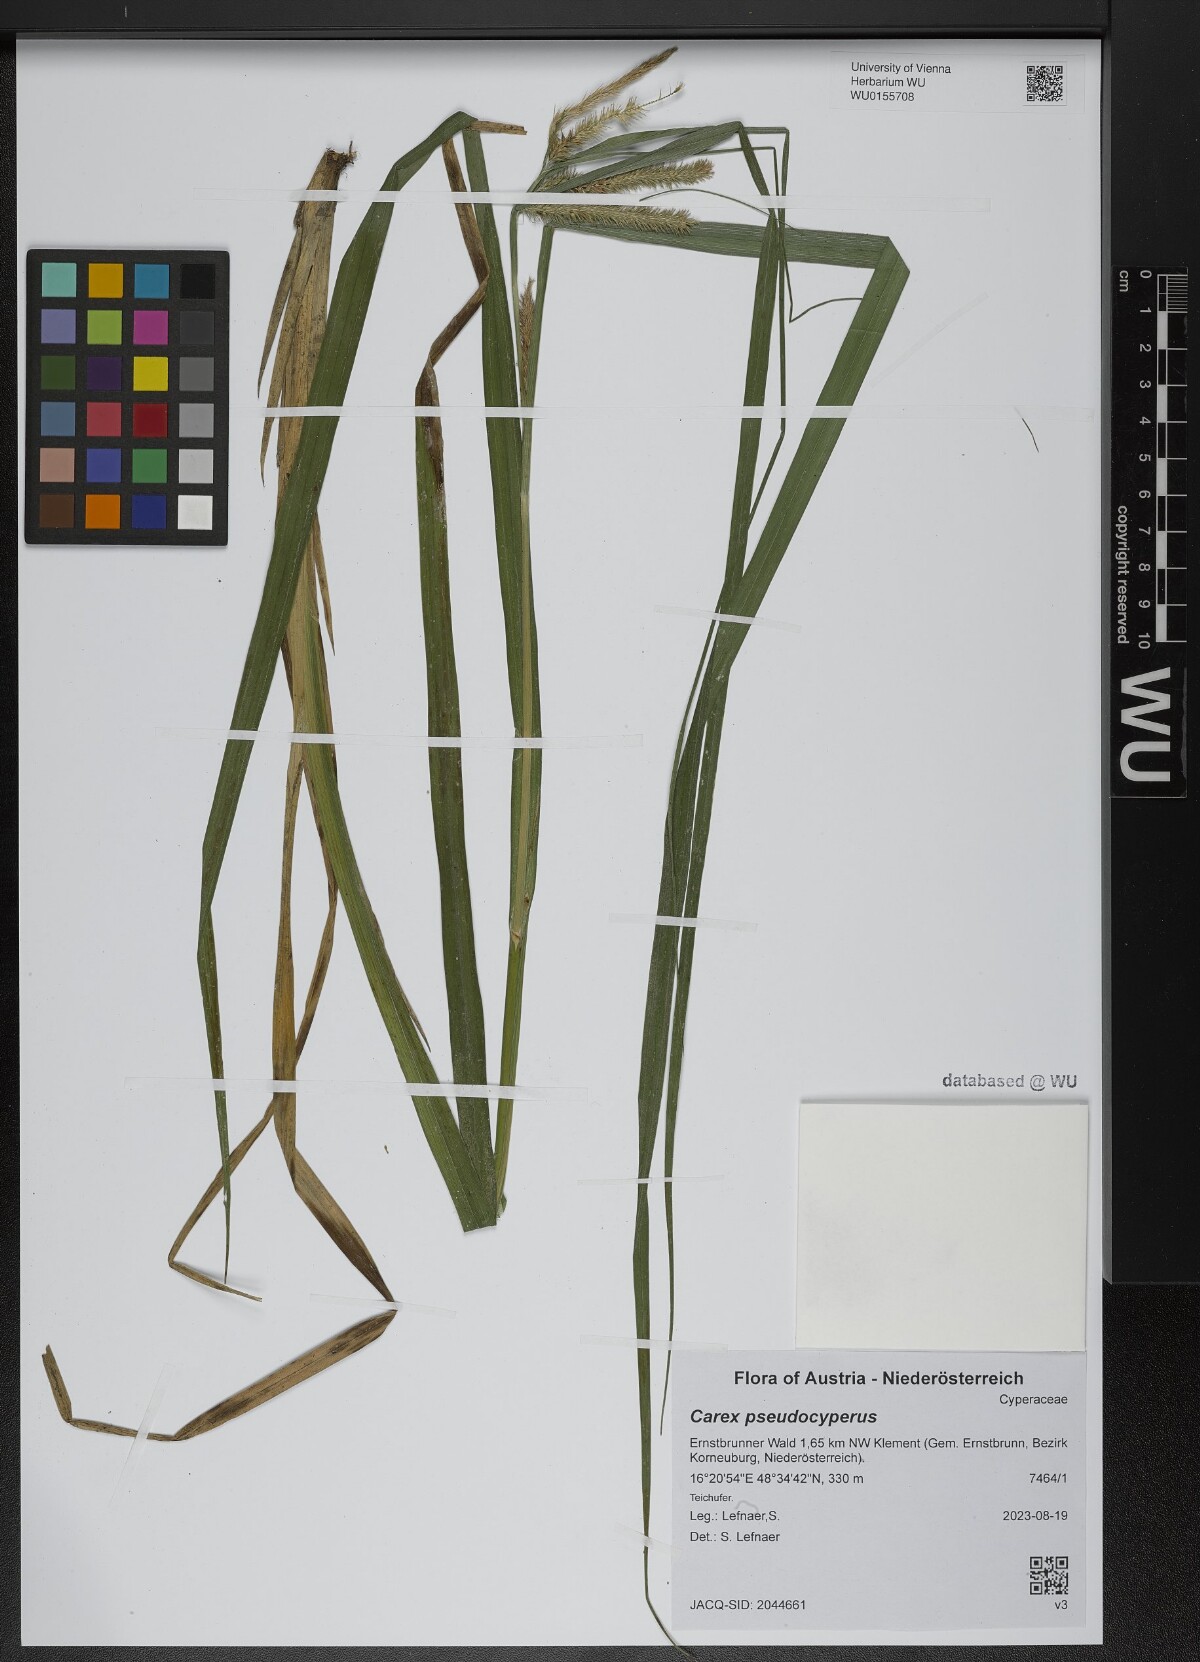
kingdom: Plantae
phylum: Tracheophyta
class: Liliopsida
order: Poales
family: Cyperaceae
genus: Carex
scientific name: Carex pseudocyperus
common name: Cyperus sedge
